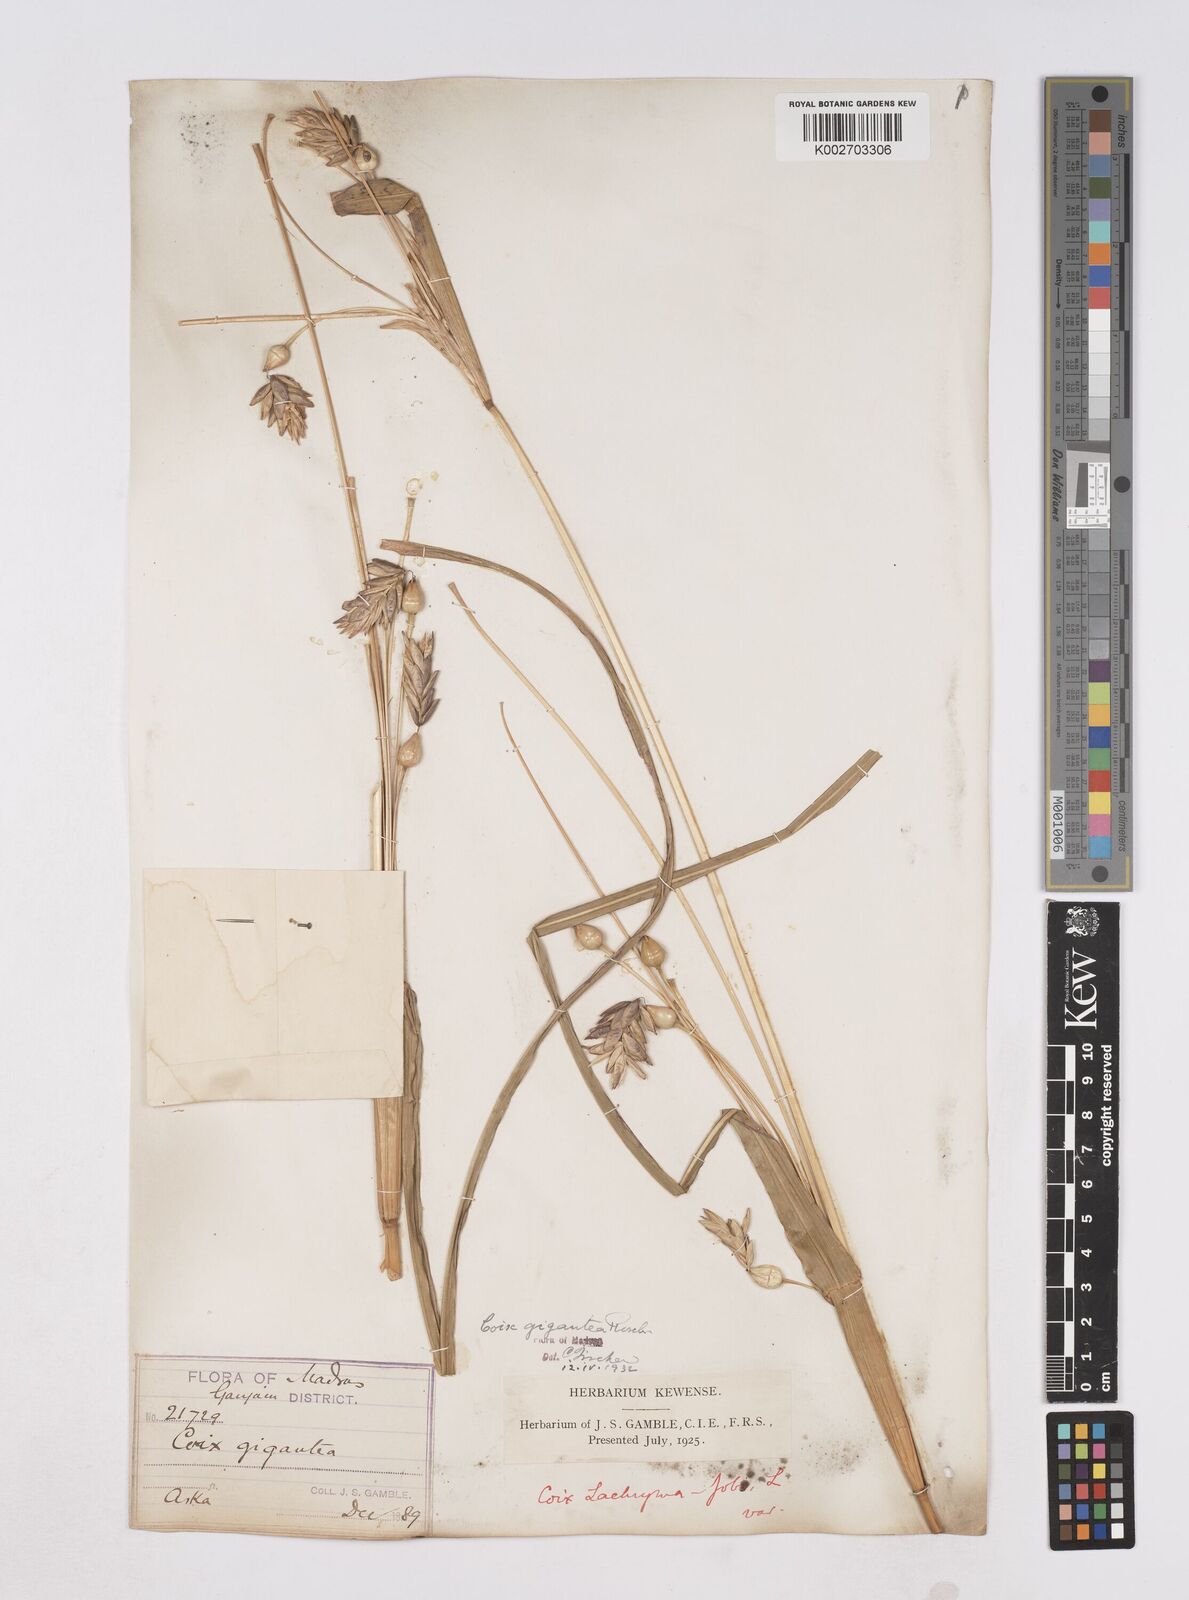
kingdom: Plantae
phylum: Tracheophyta
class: Liliopsida
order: Poales
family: Poaceae
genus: Polytoca
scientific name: Polytoca gigantea
